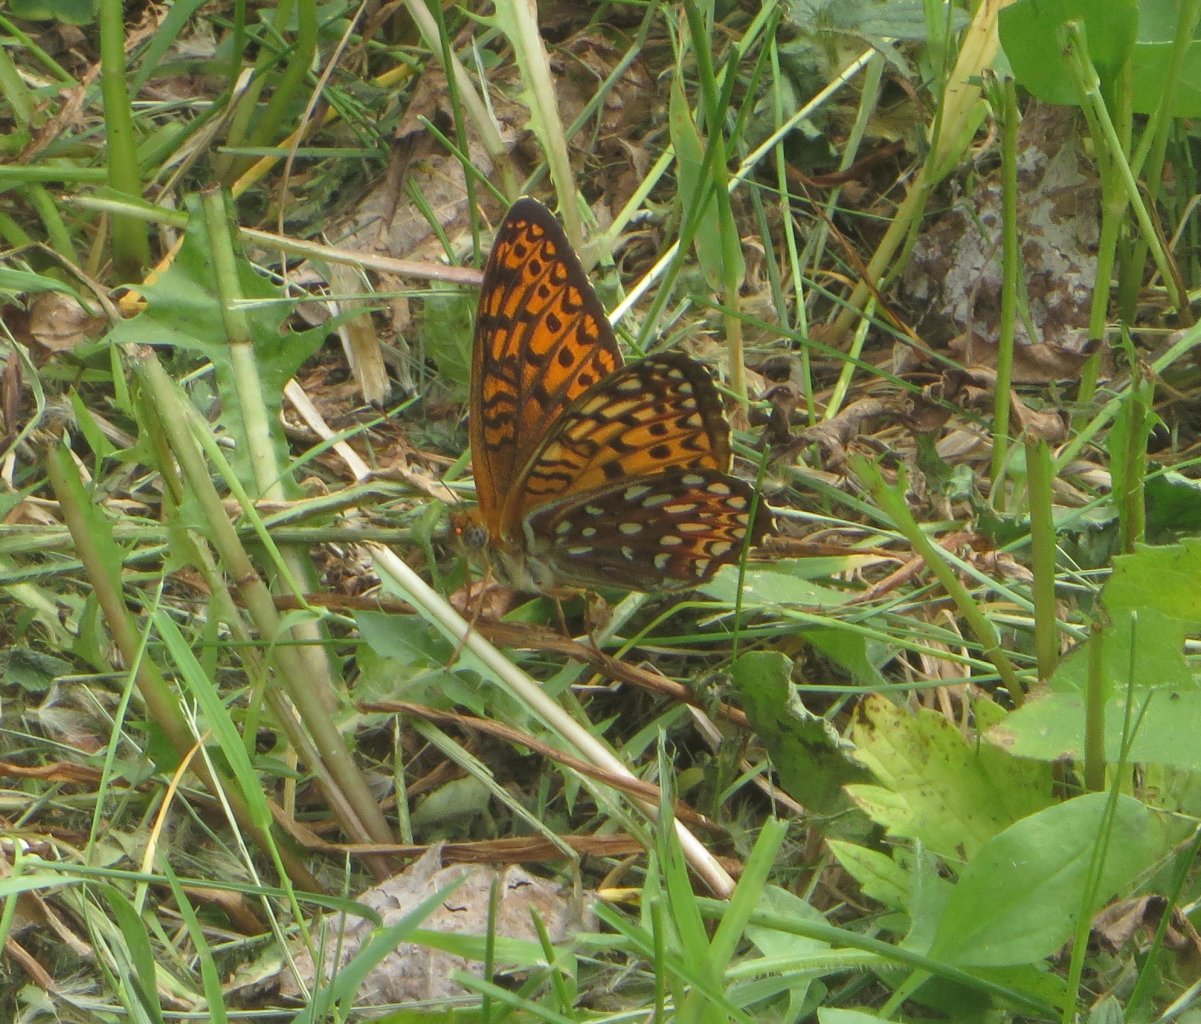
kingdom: Animalia
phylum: Arthropoda
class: Insecta
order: Lepidoptera
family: Nymphalidae
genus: Speyeria
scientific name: Speyeria atlantis
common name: Atlantis Fritillary
